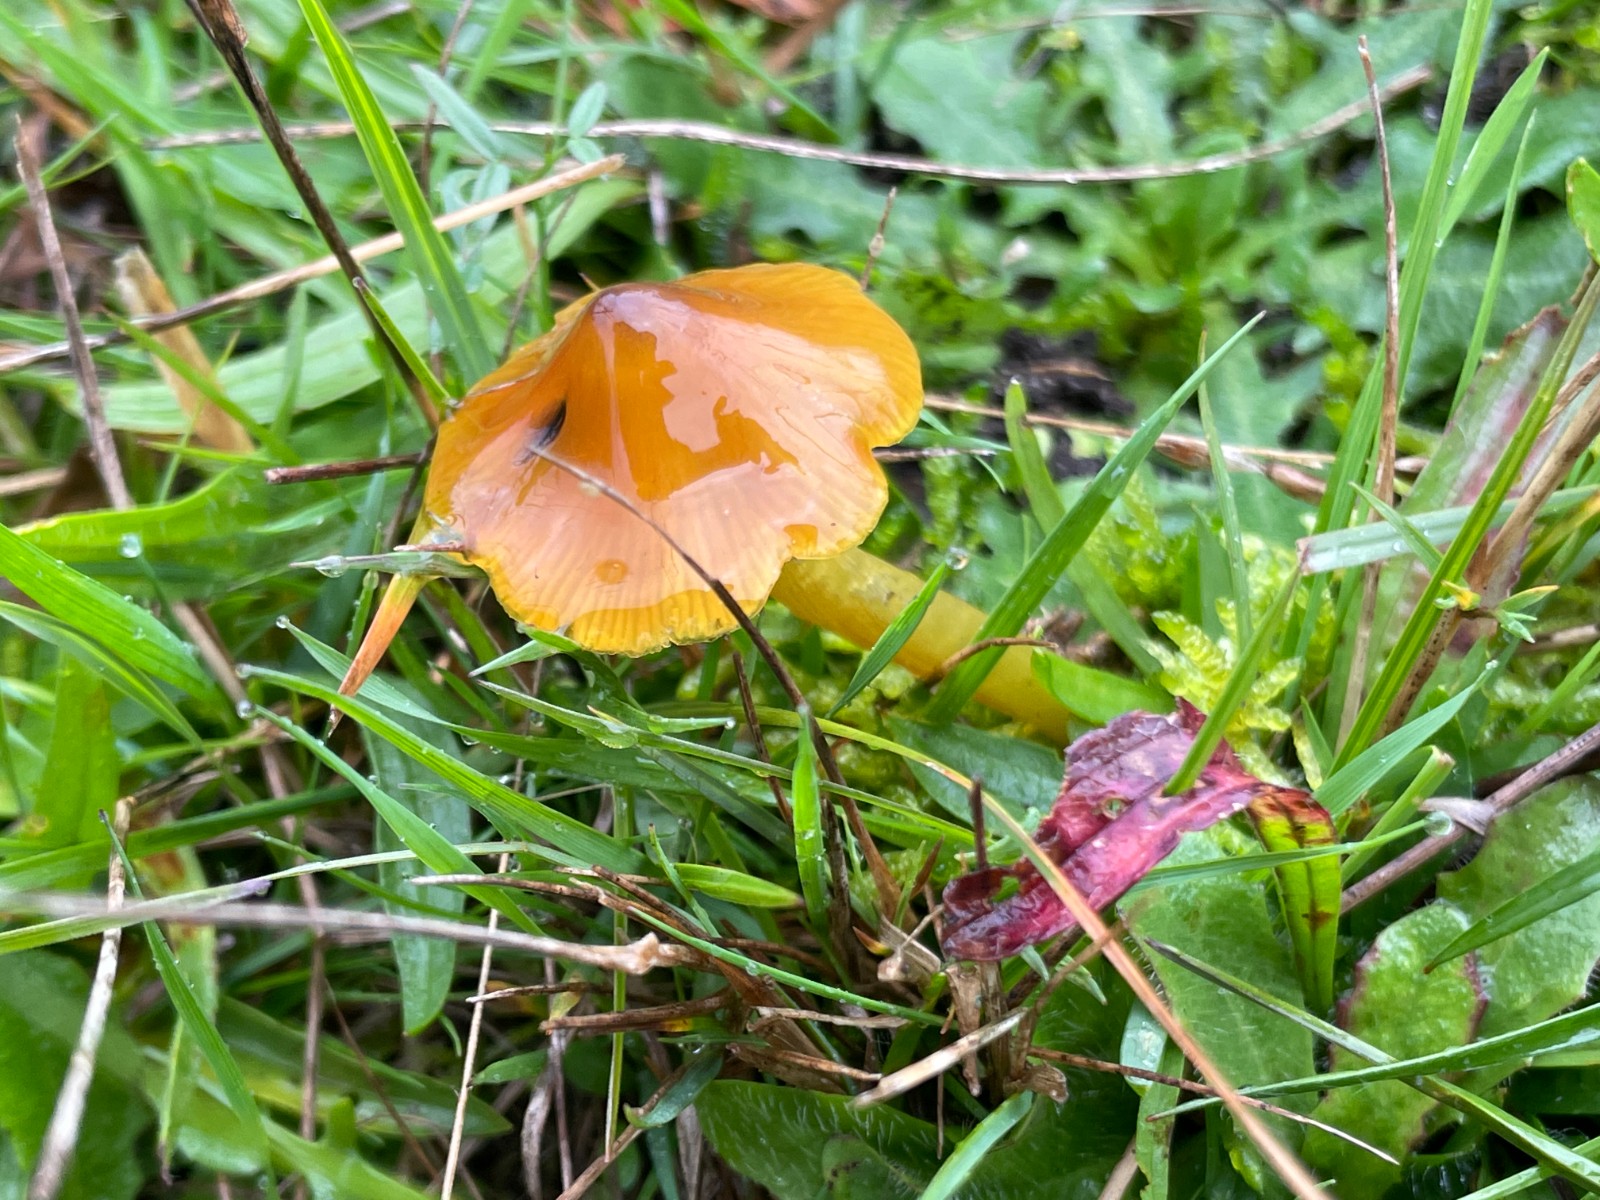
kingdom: Fungi
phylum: Basidiomycota
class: Agaricomycetes
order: Agaricales
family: Hygrophoraceae
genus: Hygrocybe
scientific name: Hygrocybe conica
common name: kegle-vokshat
